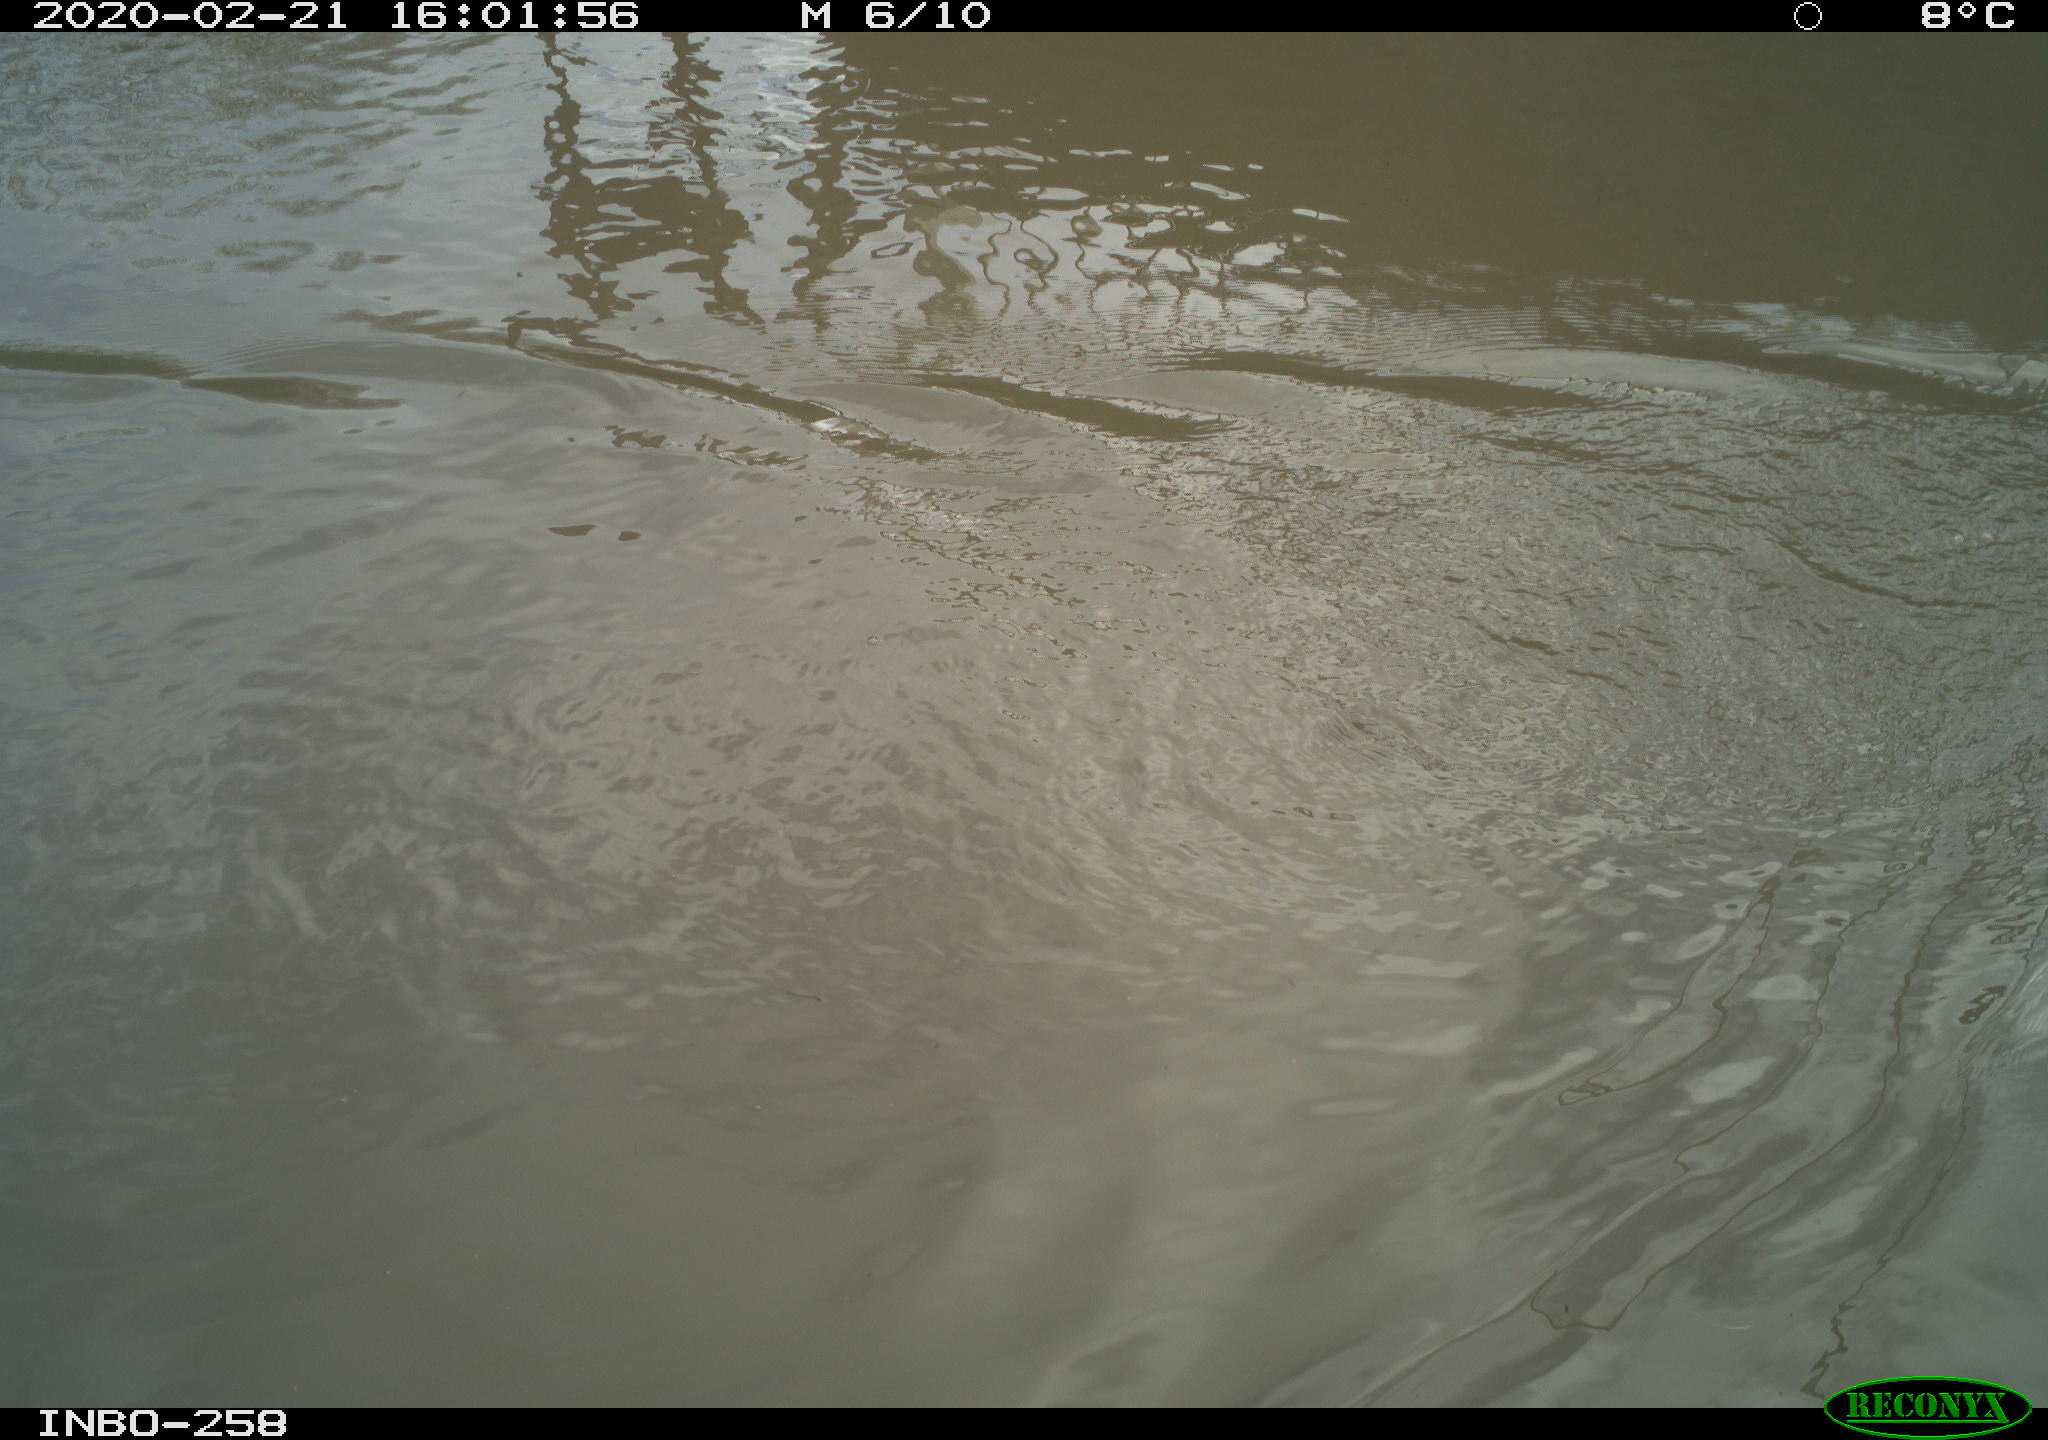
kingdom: Animalia
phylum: Chordata
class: Aves
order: Anseriformes
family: Anatidae
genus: Anas
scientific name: Anas platyrhynchos
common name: Mallard
